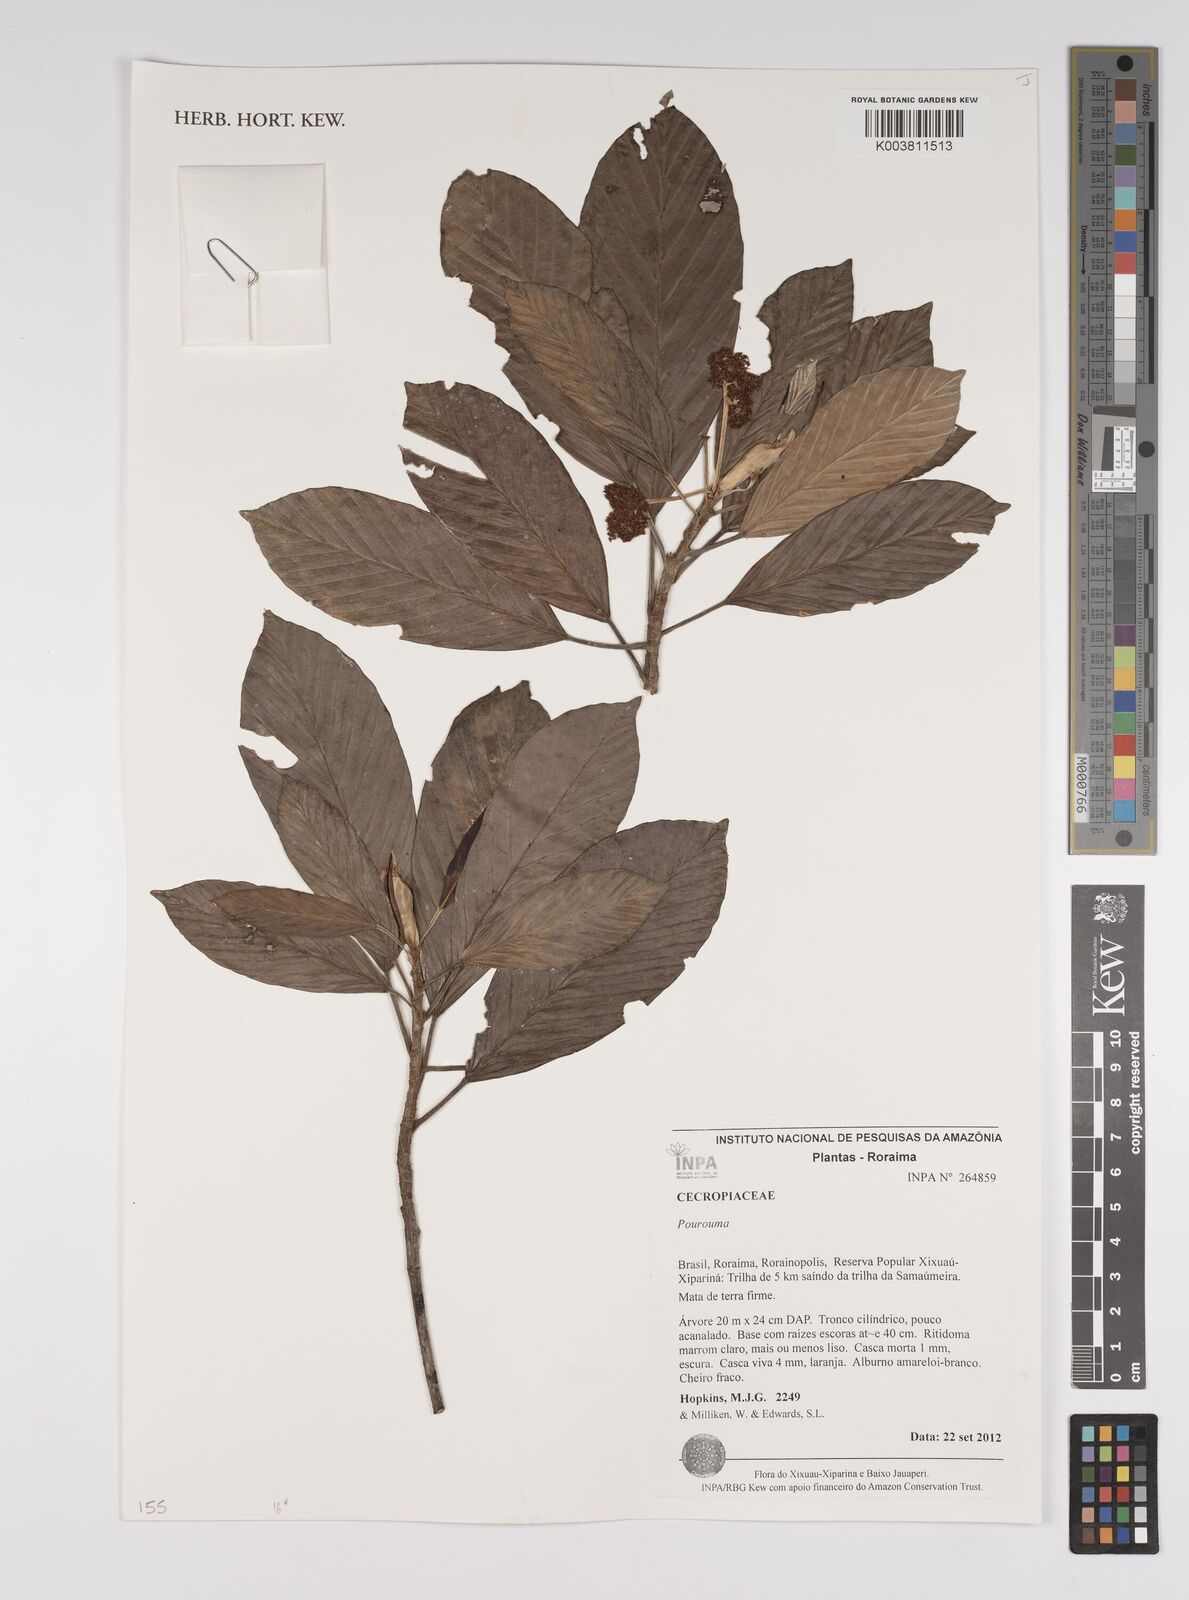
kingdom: Plantae
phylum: Tracheophyta
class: Magnoliopsida
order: Rosales
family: Urticaceae
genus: Pourouma
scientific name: Pourouma
